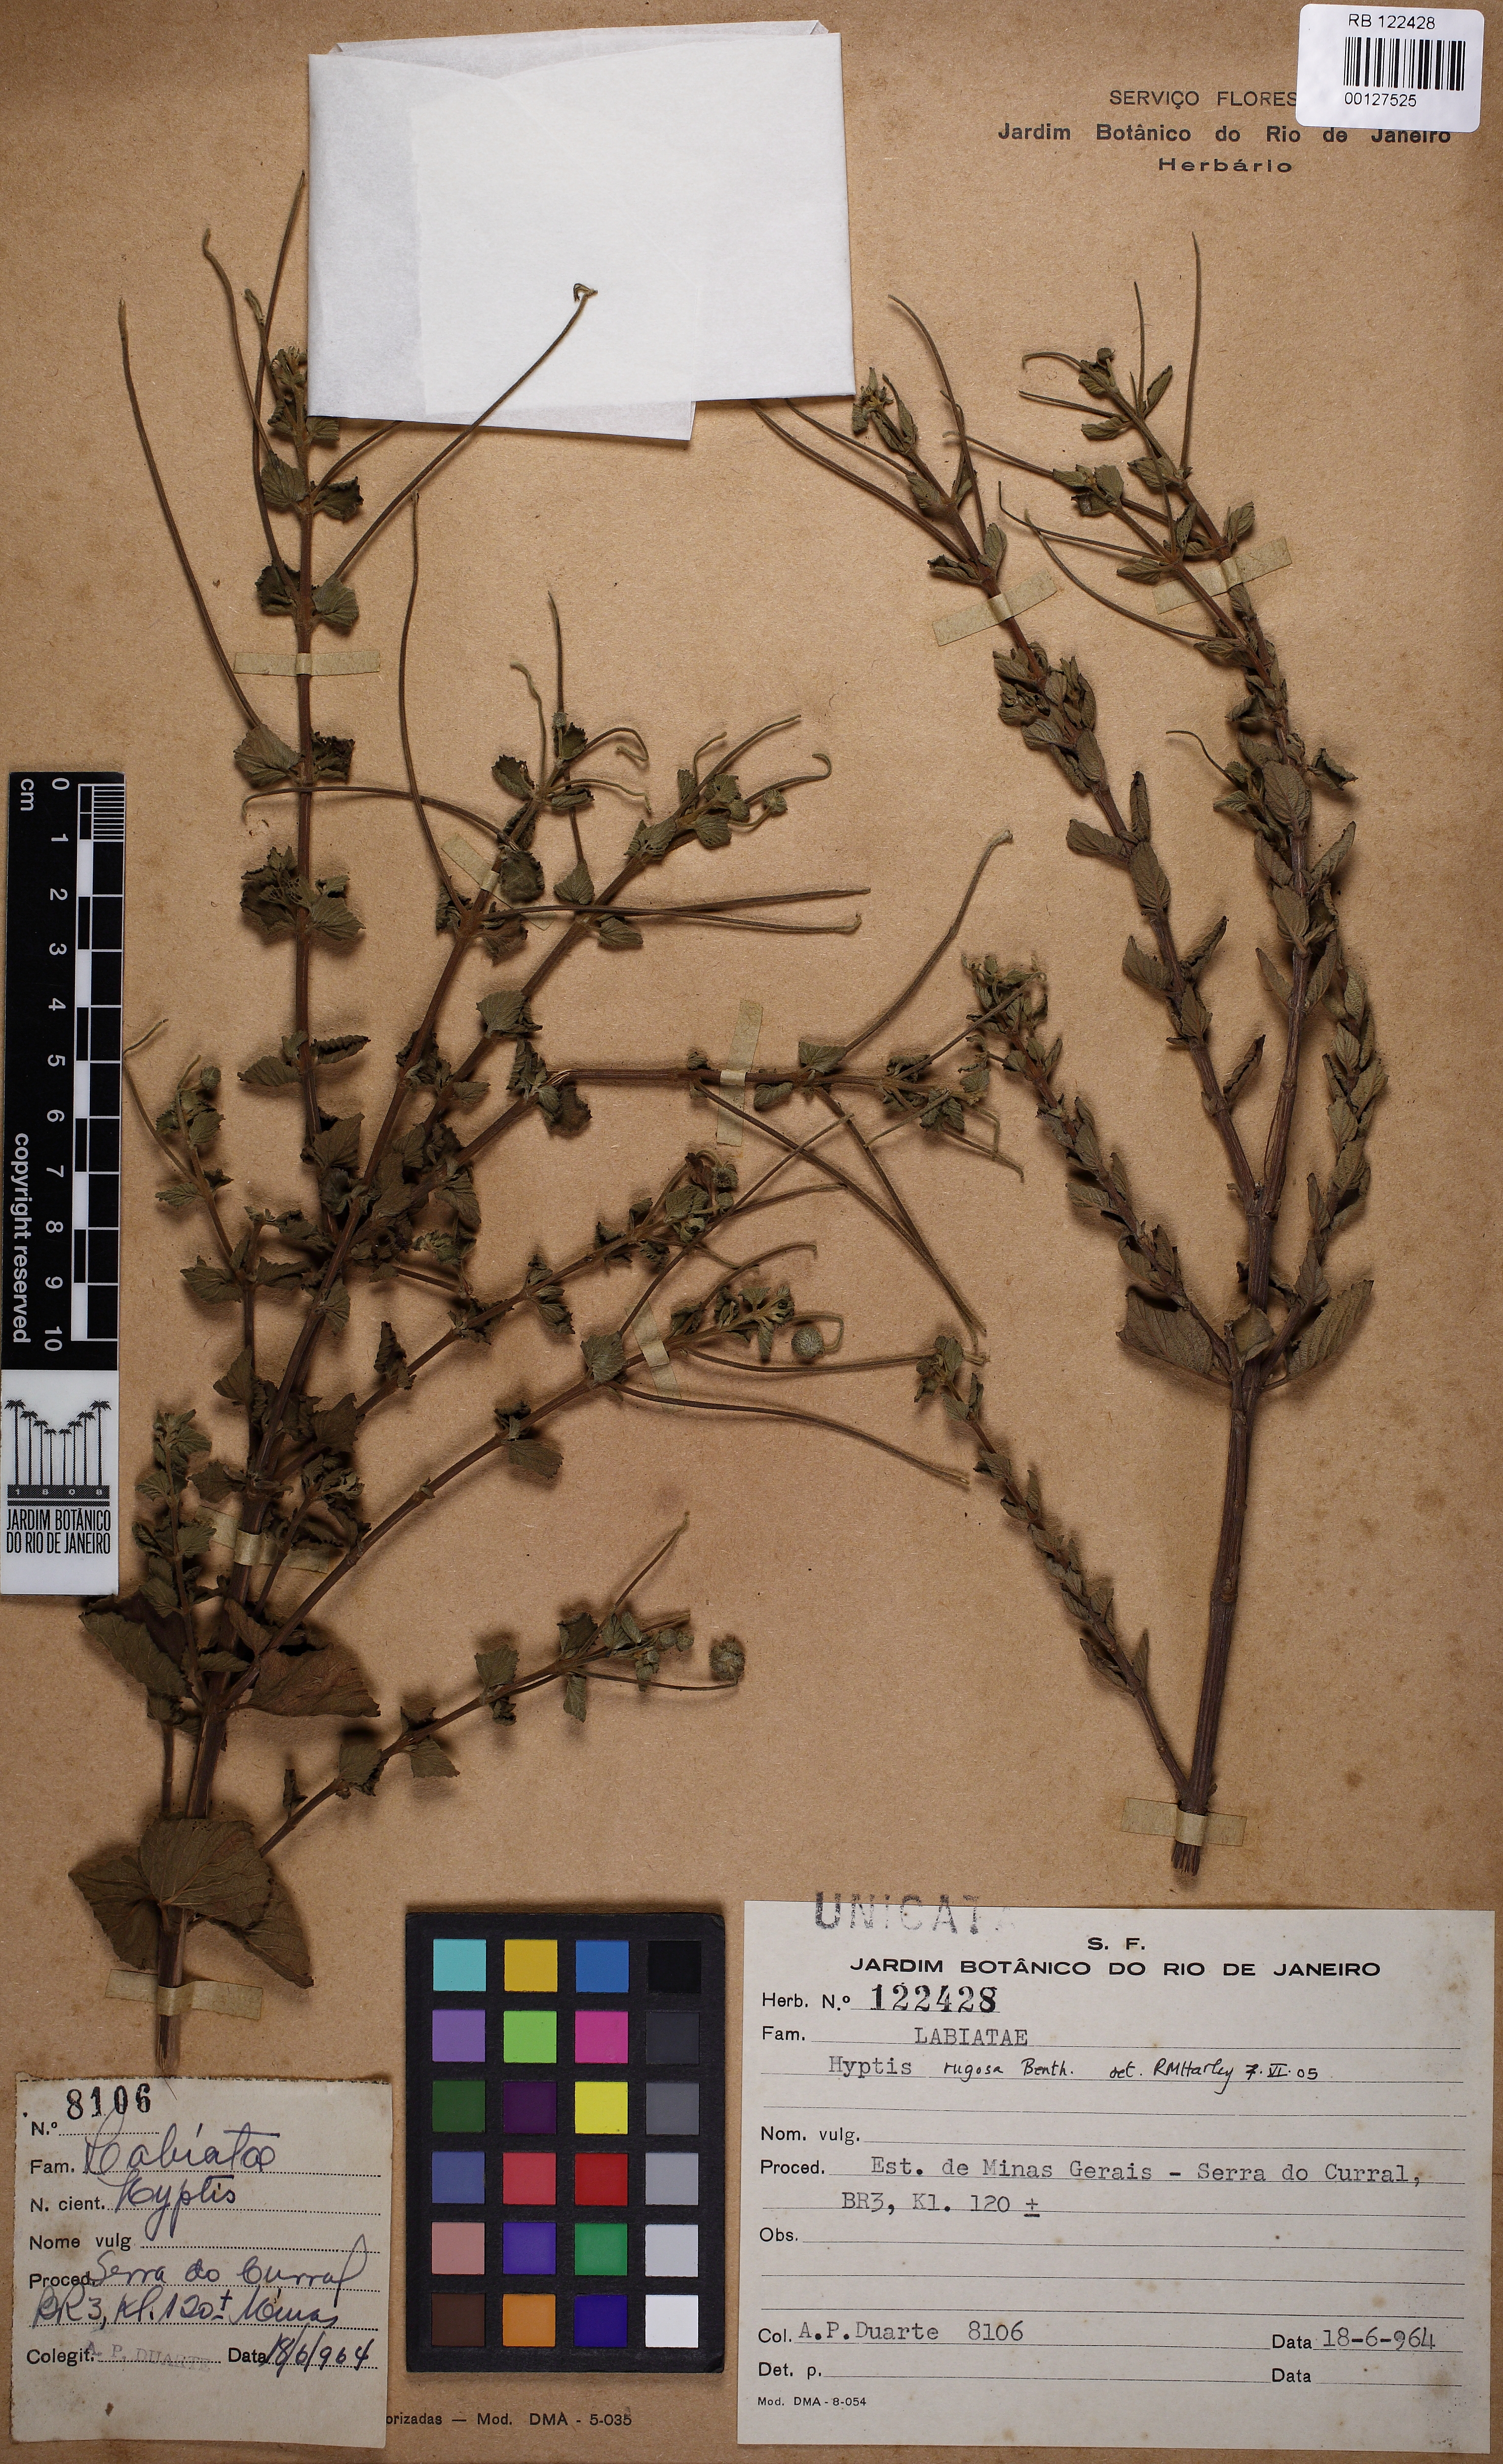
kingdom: Plantae
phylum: Tracheophyta
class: Magnoliopsida
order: Lamiales
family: Lamiaceae
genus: Cyanocephalus
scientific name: Cyanocephalus rugosus
